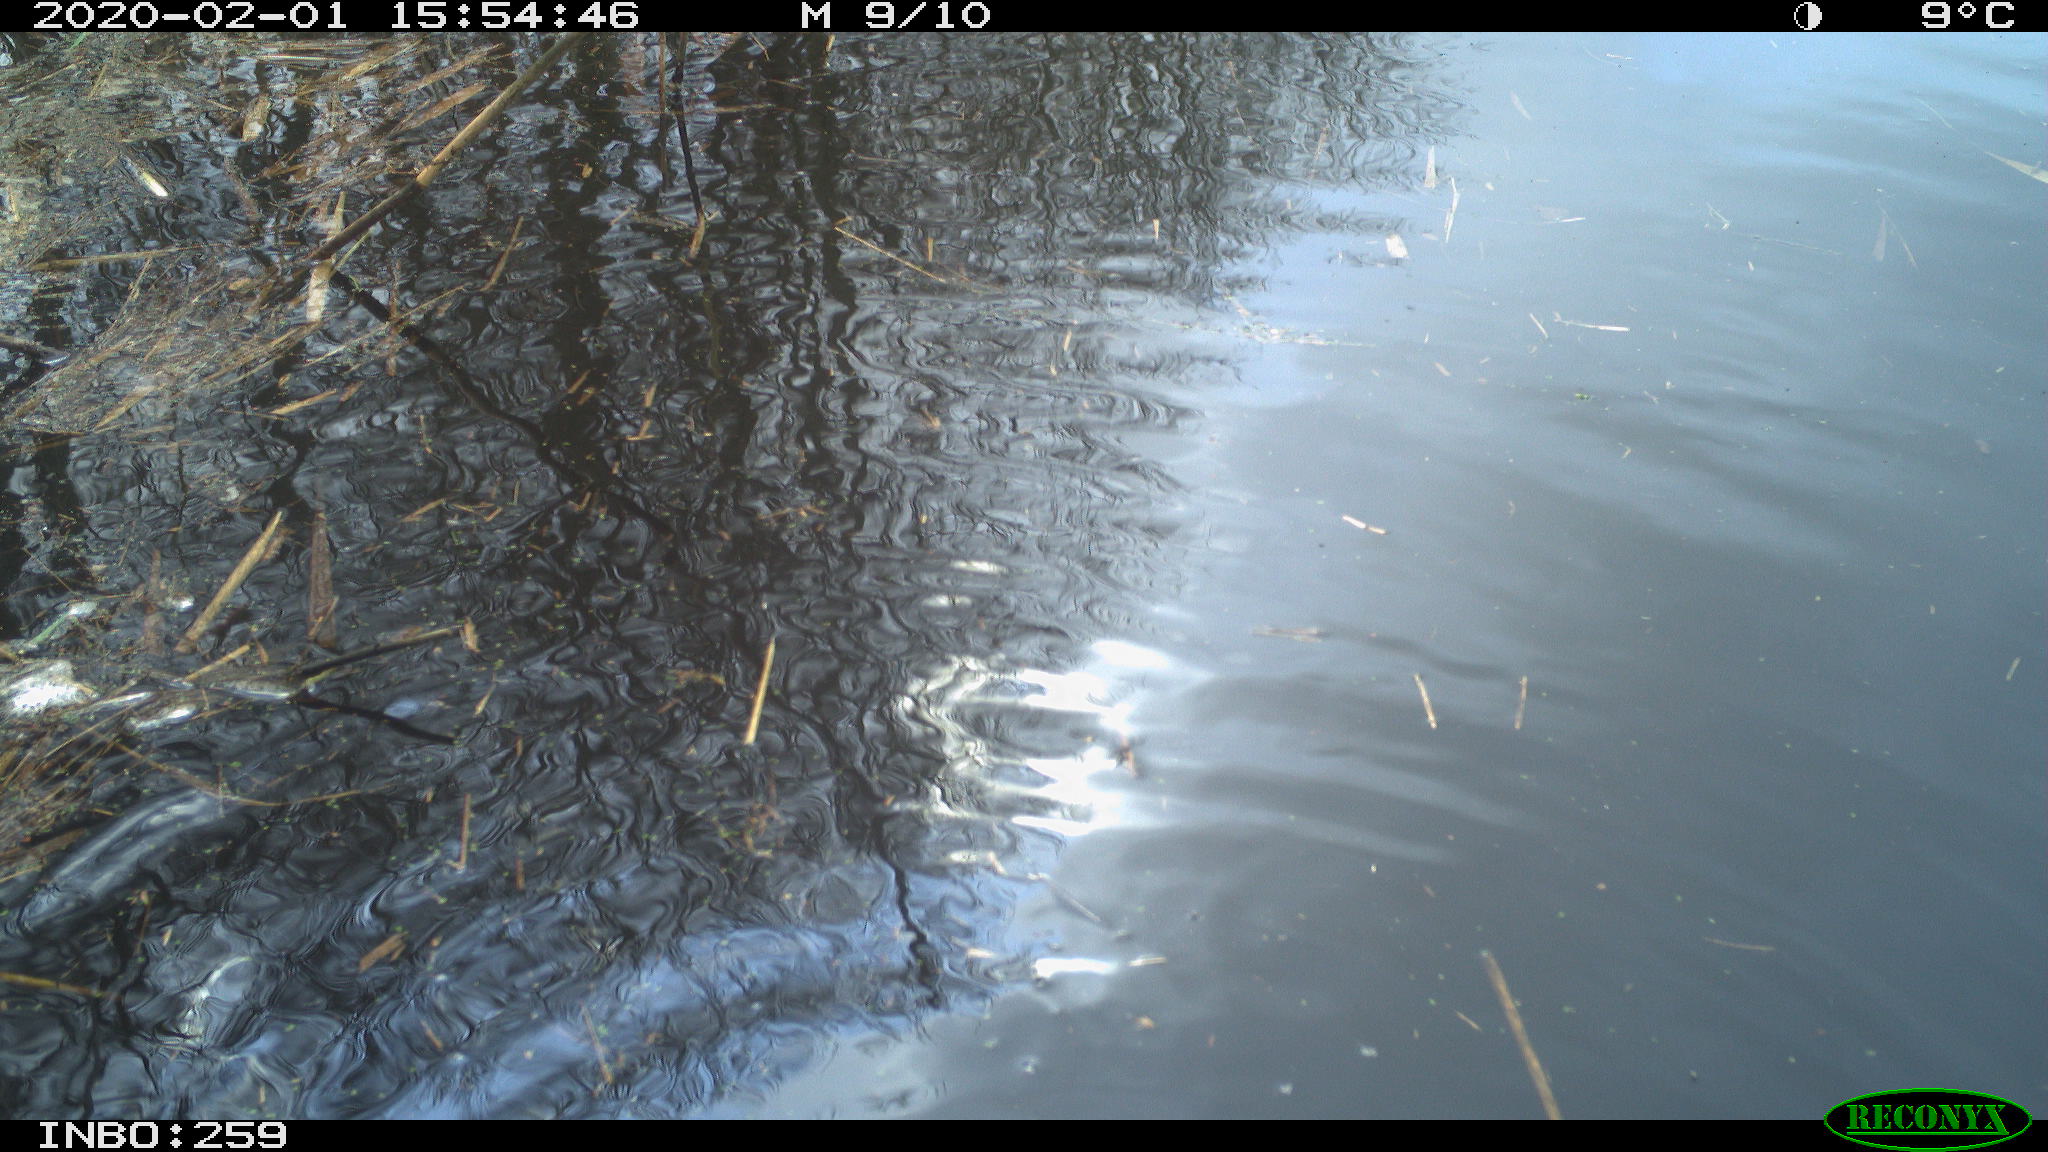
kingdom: Animalia
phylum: Chordata
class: Aves
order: Gruiformes
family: Rallidae
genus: Gallinula
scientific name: Gallinula chloropus
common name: Common moorhen
